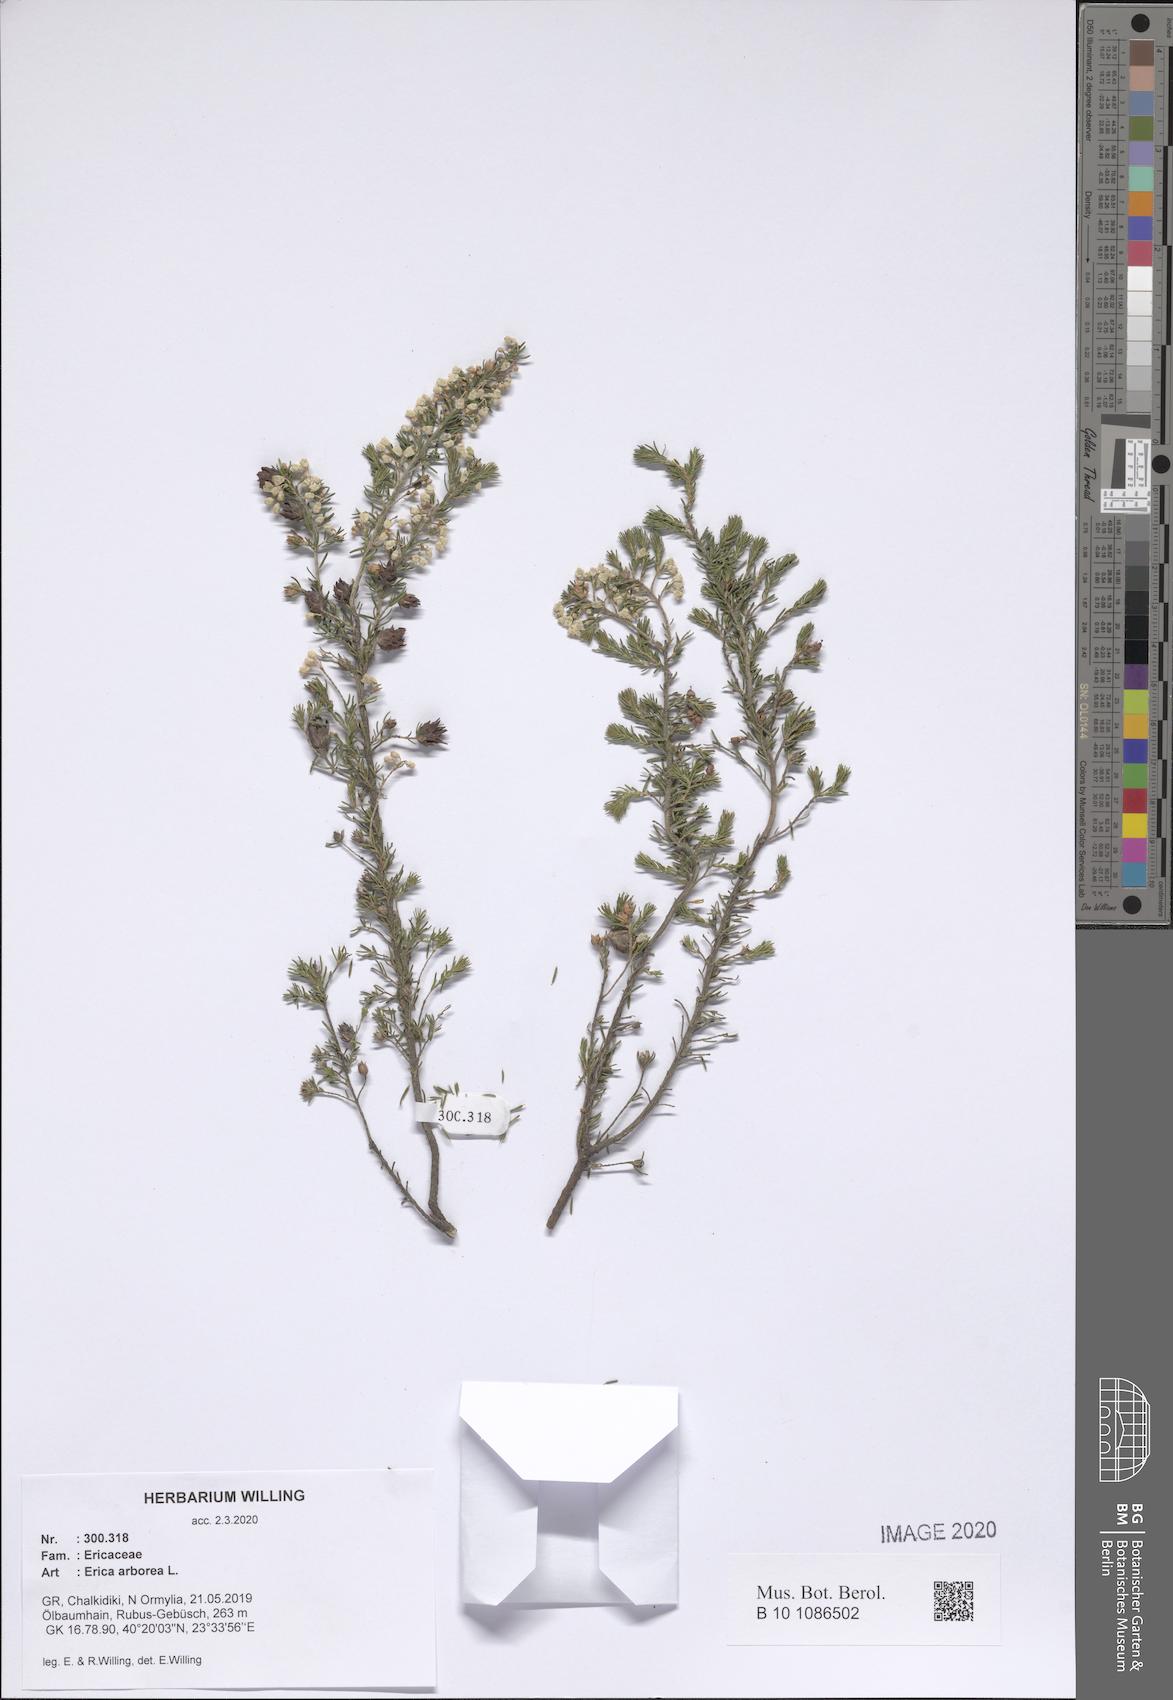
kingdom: Plantae
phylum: Tracheophyta
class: Magnoliopsida
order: Ericales
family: Ericaceae
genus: Erica
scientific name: Erica arborea
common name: Tree heath
